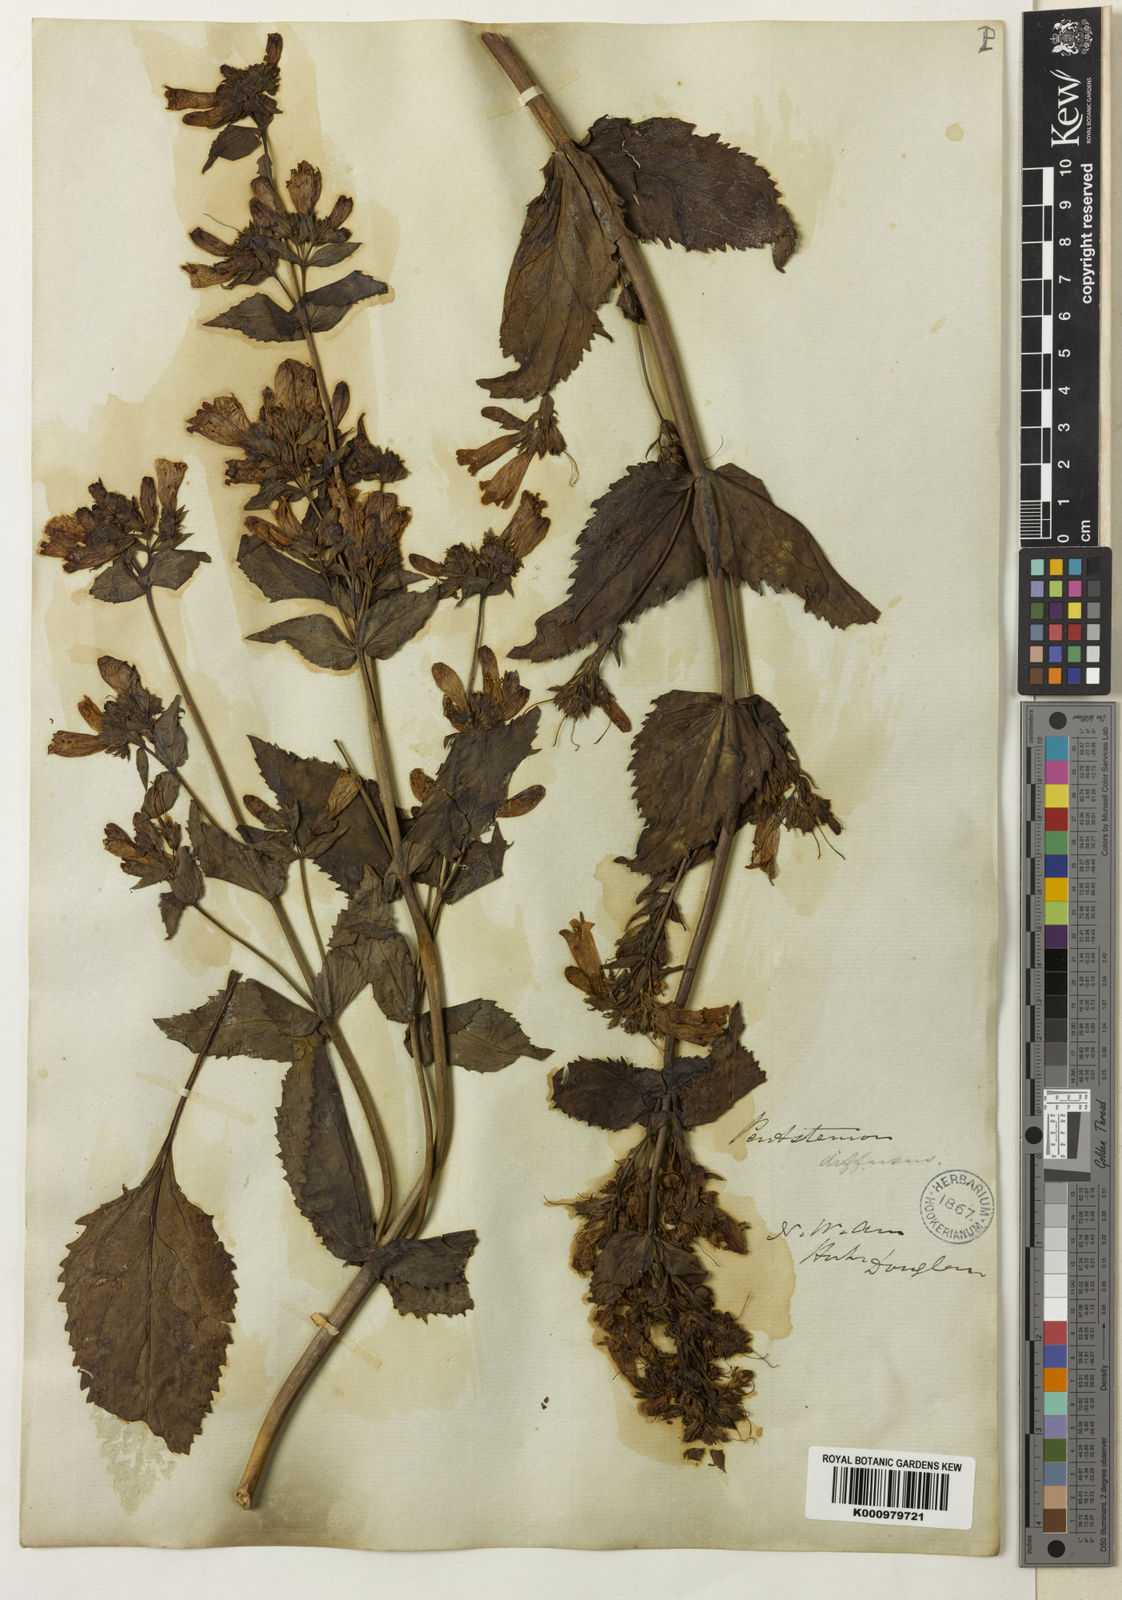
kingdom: Plantae
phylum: Tracheophyta
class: Magnoliopsida
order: Lamiales
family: Plantaginaceae
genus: Penstemon
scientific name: Penstemon serrulatus
